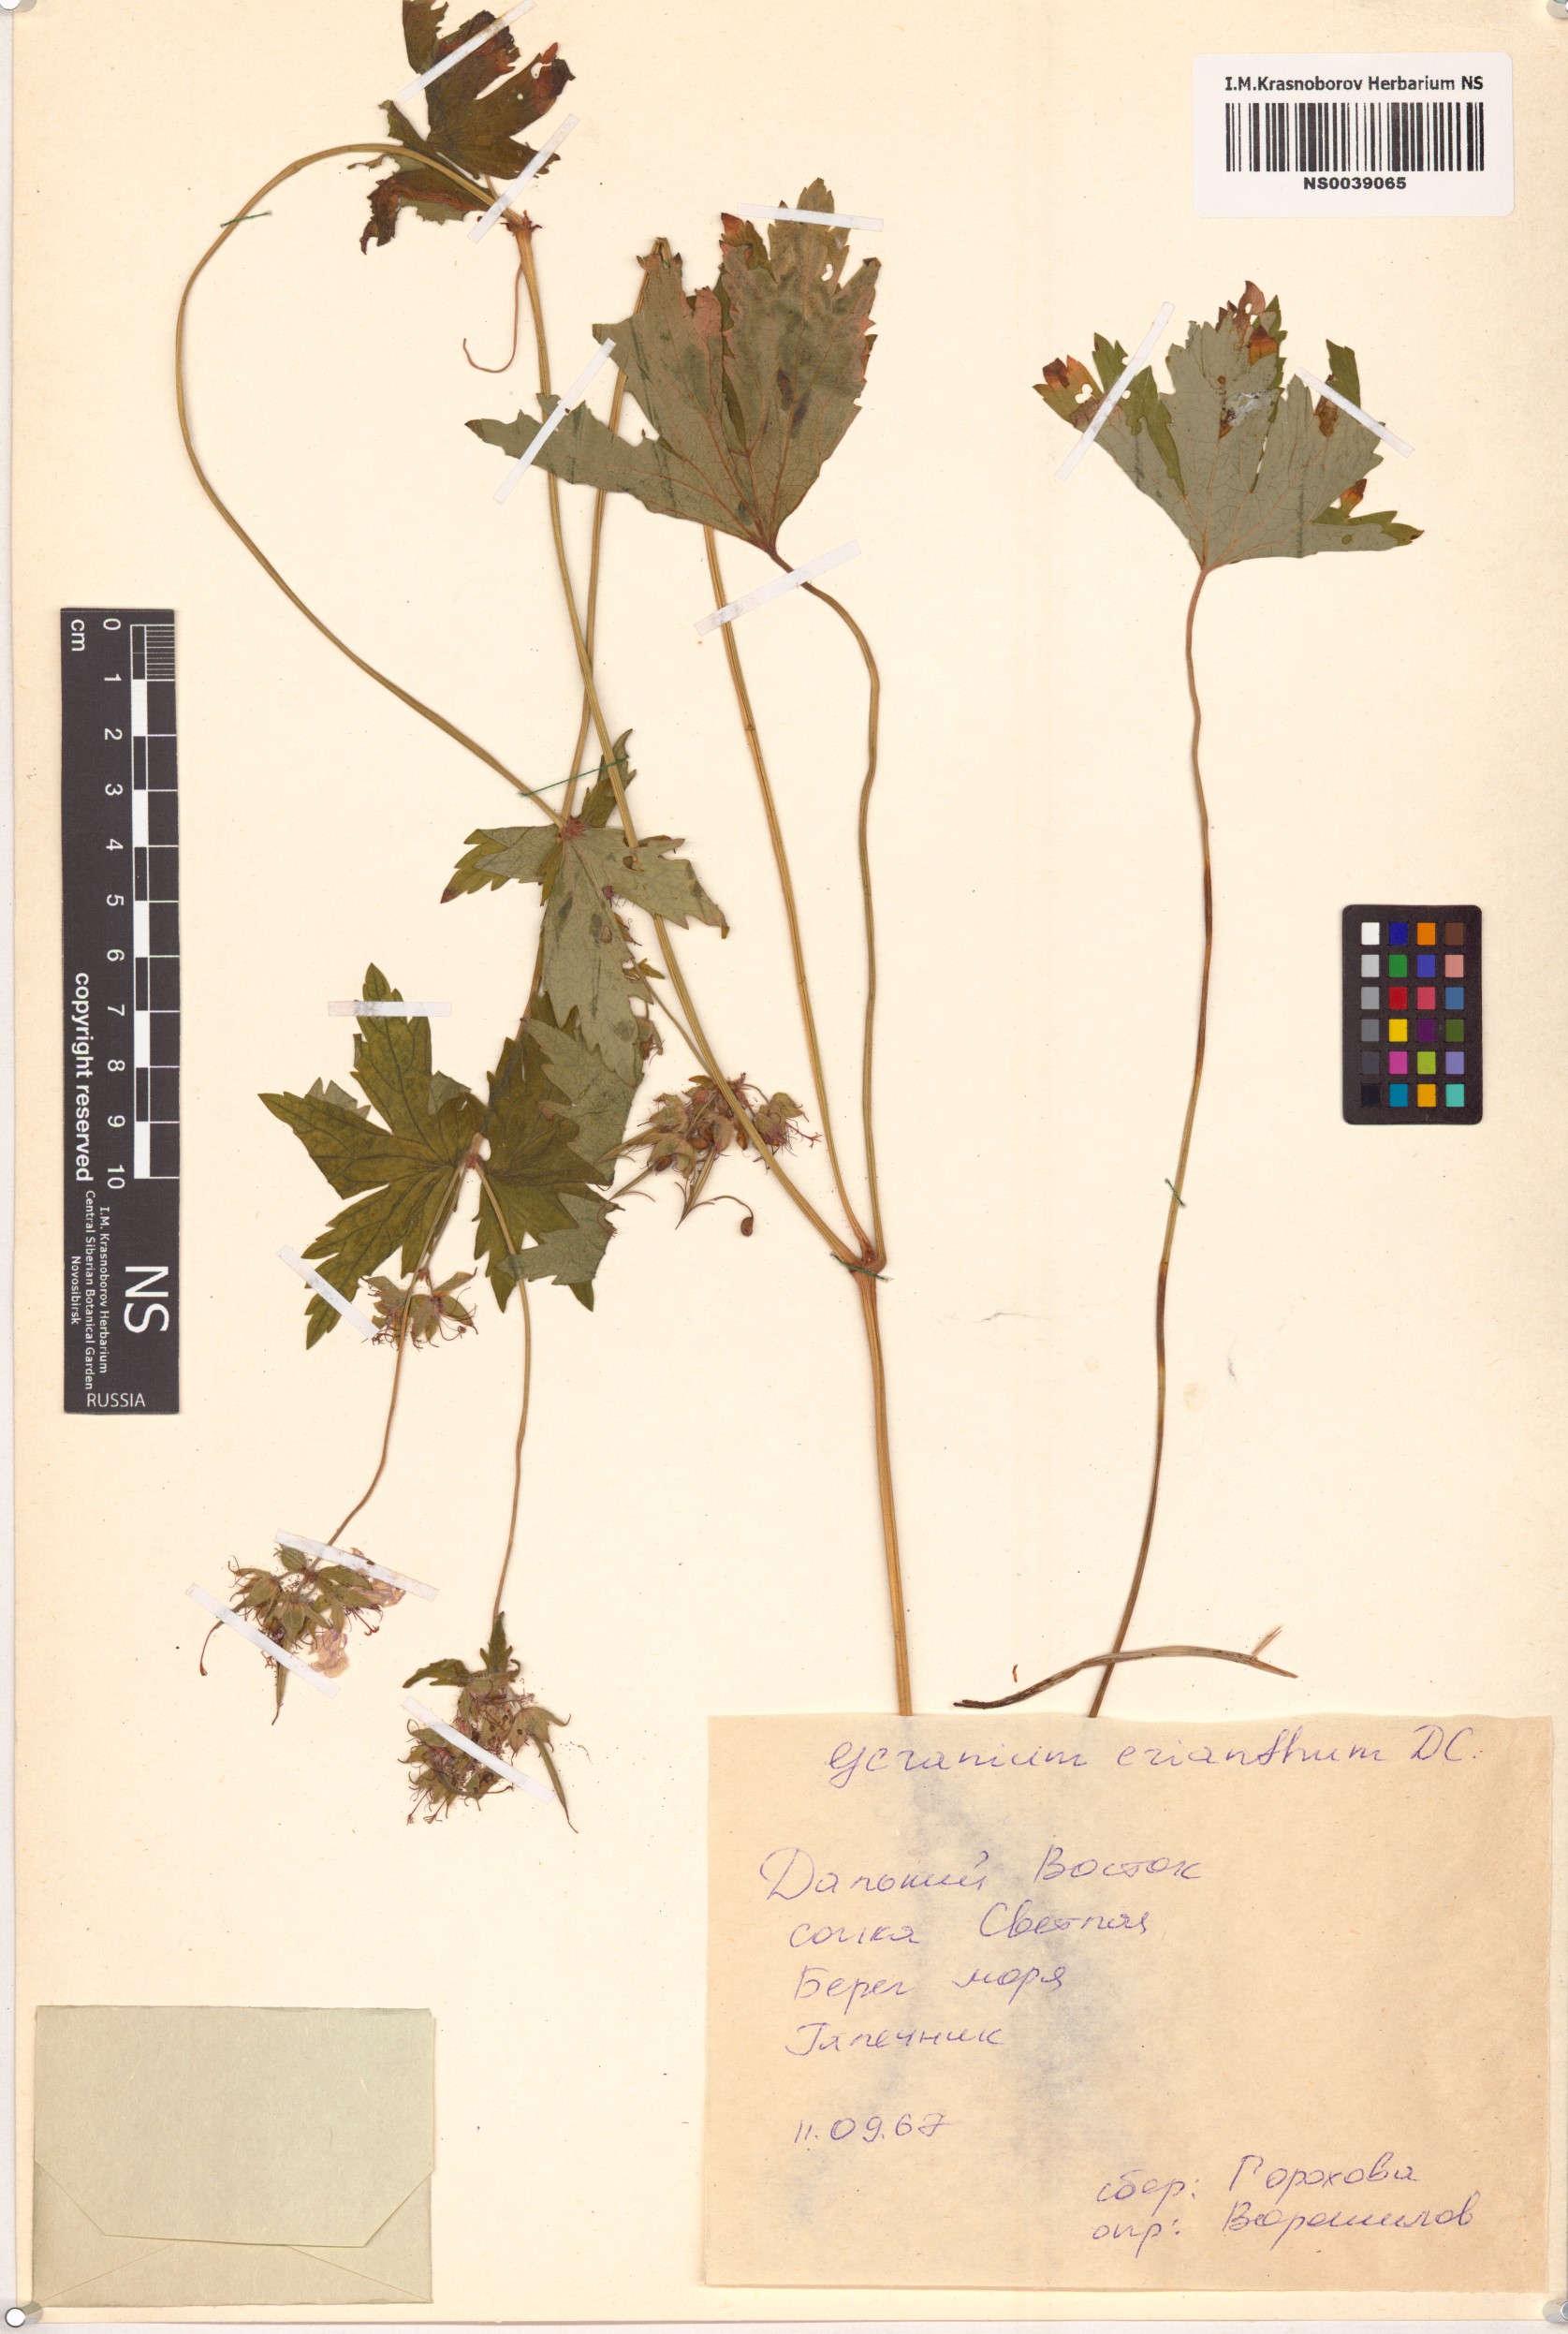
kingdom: Plantae
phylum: Tracheophyta
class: Magnoliopsida
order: Geraniales
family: Geraniaceae
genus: Geranium
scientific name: Geranium erianthum
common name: Northern crane's-bill
